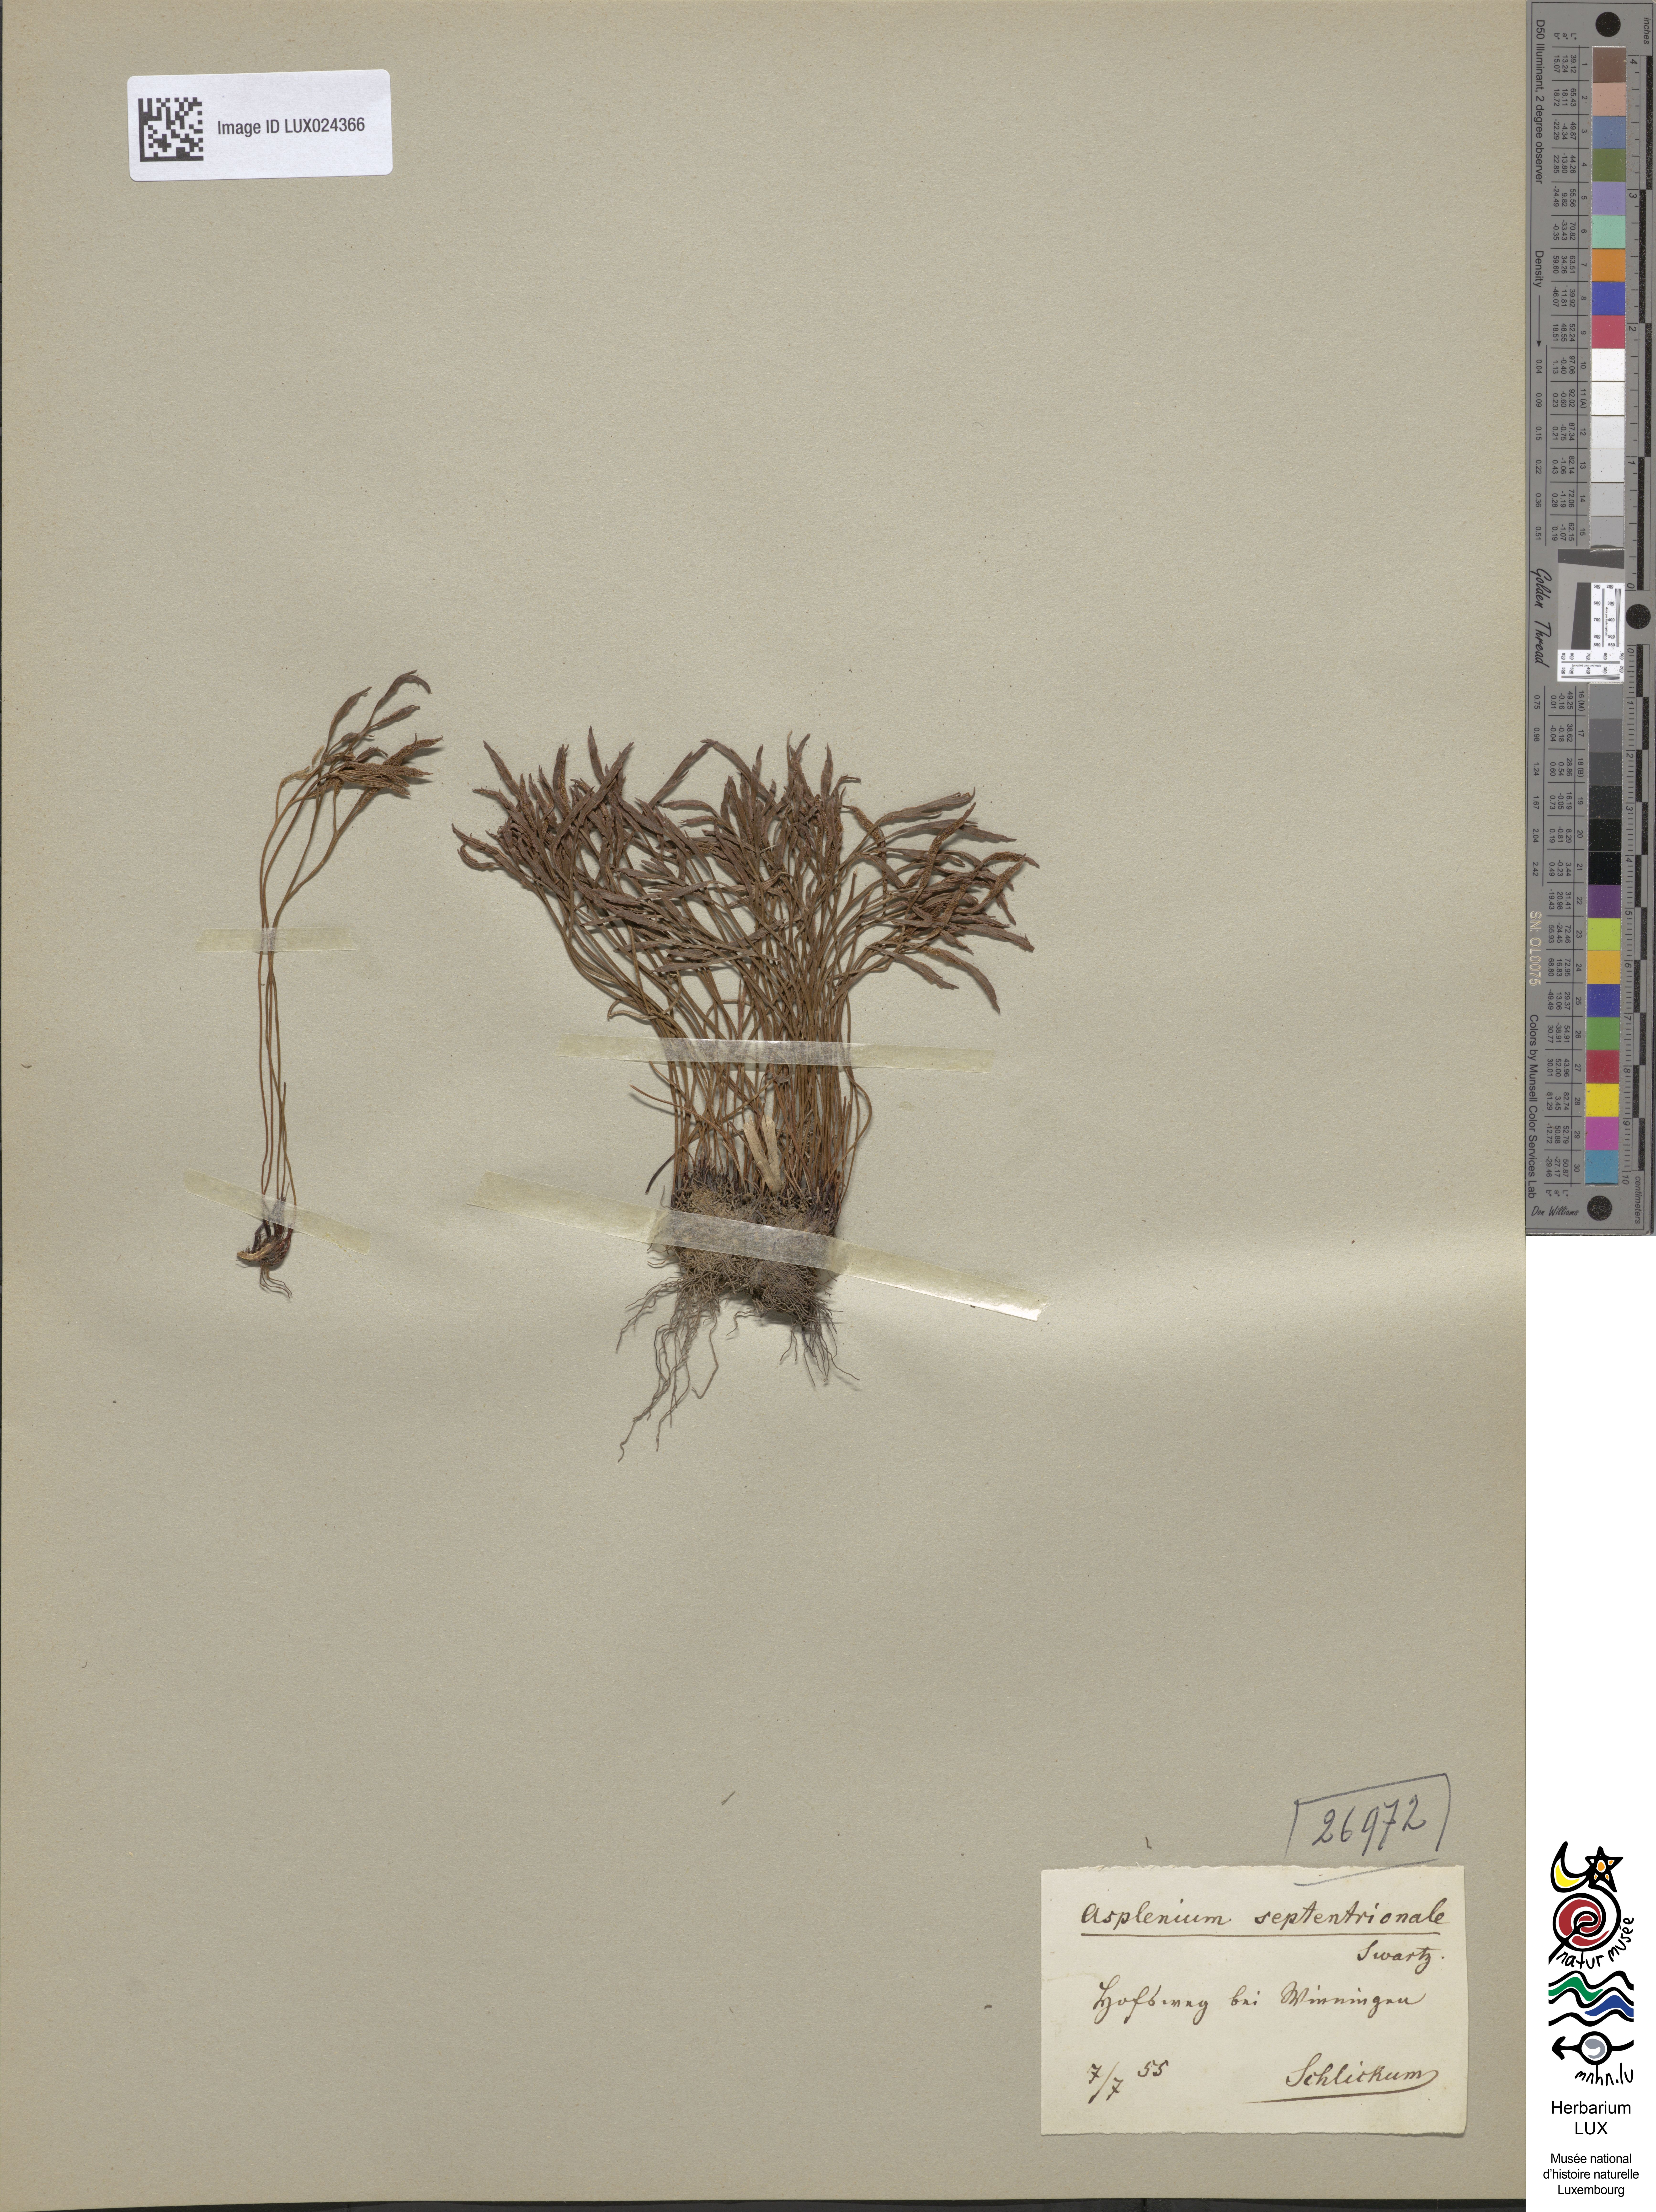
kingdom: Plantae
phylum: Tracheophyta
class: Polypodiopsida
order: Polypodiales
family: Aspleniaceae
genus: Asplenium
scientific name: Asplenium septentrionale
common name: Forked spleenwort
